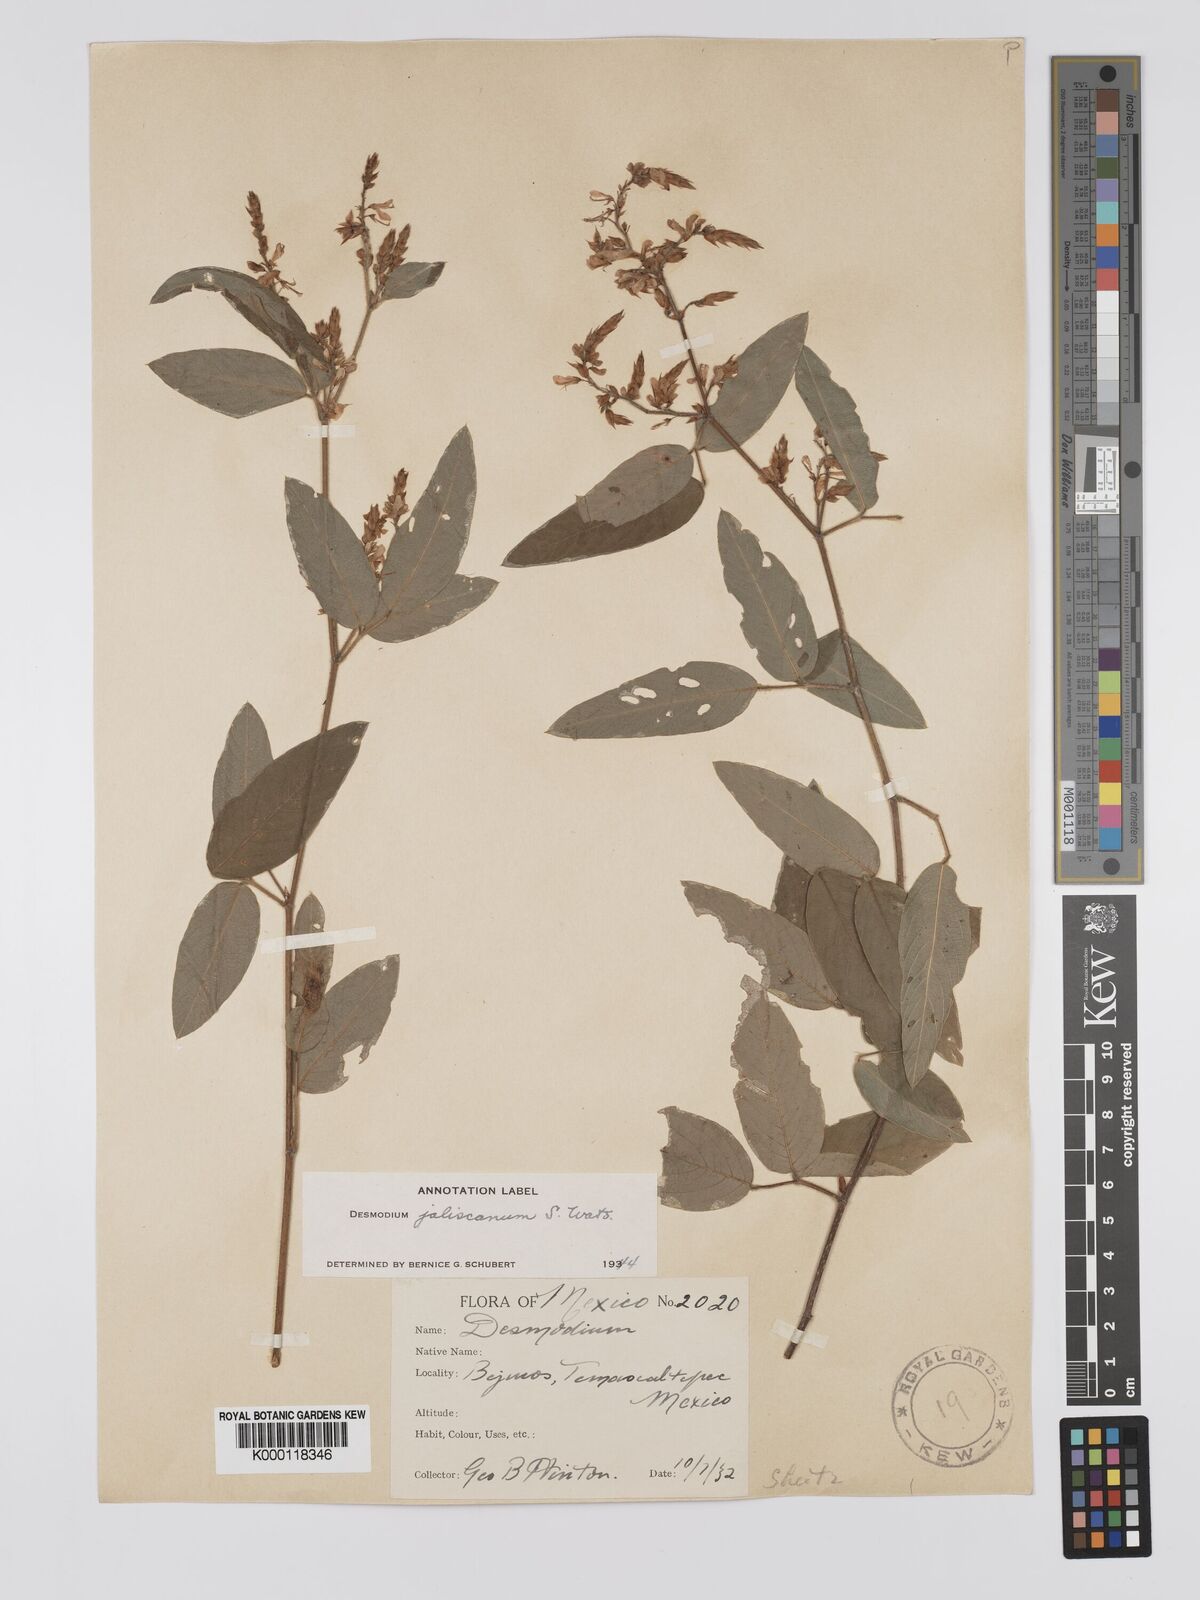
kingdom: Plantae
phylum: Tracheophyta
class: Magnoliopsida
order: Fabales
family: Fabaceae
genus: Desmodium
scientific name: Desmodium jaliscanum
